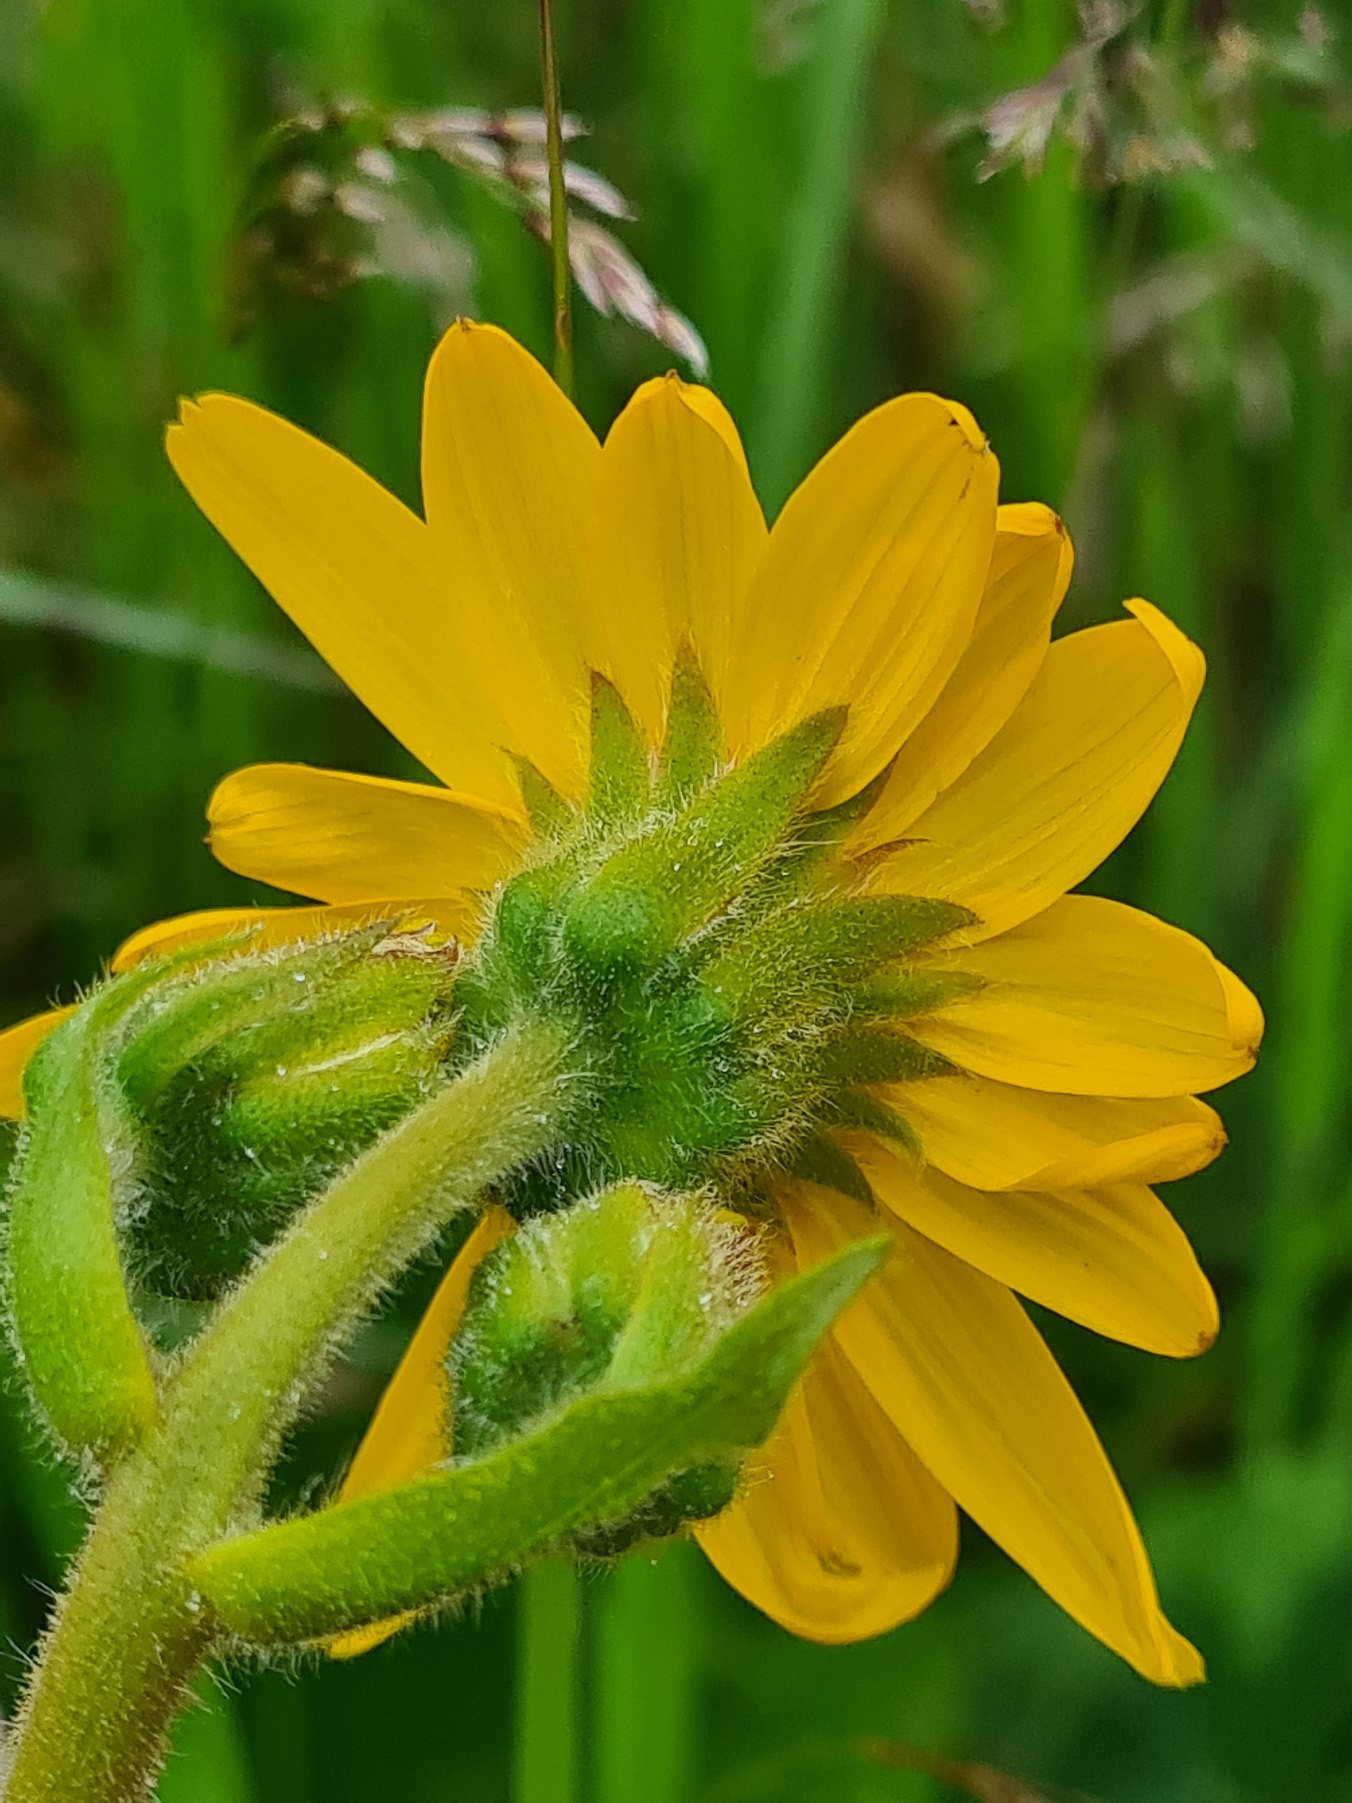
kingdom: Plantae
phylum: Tracheophyta
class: Magnoliopsida
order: Asterales
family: Asteraceae
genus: Arnica
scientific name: Arnica montana
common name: Guldblomme
